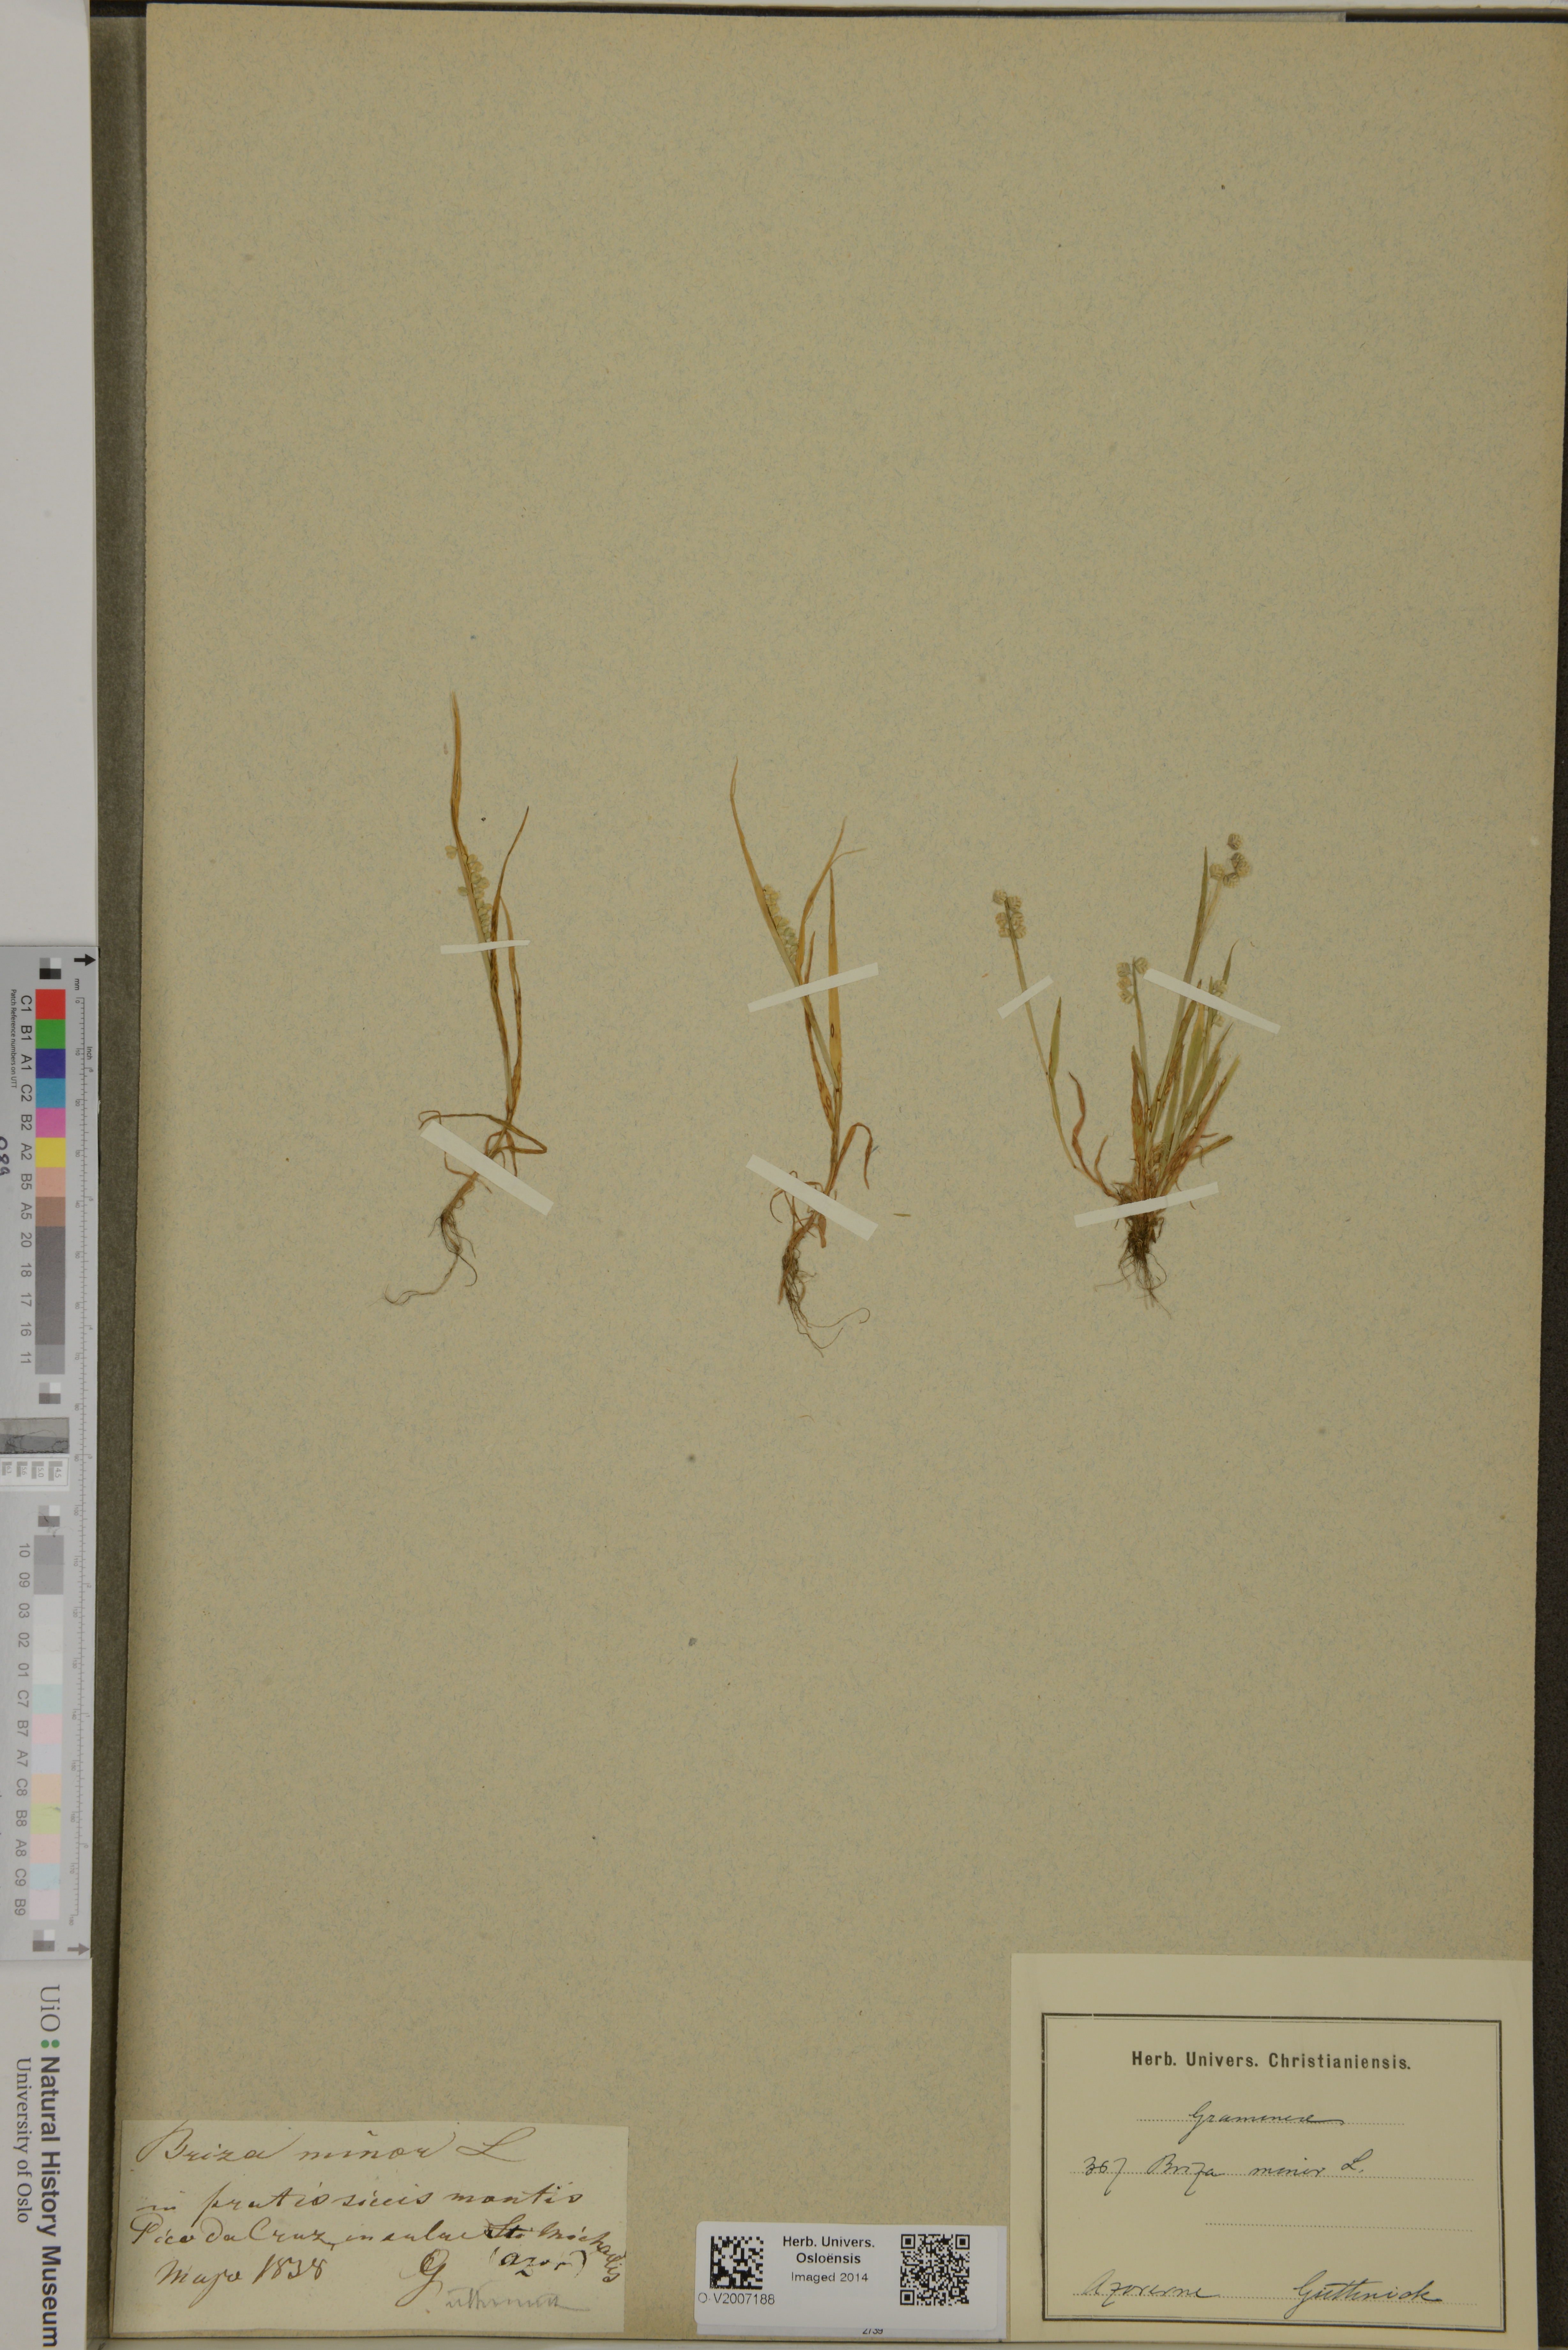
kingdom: Plantae
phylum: Tracheophyta
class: Liliopsida
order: Poales
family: Poaceae
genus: Briza
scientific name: Briza minor
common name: Lesser quaking-grass
